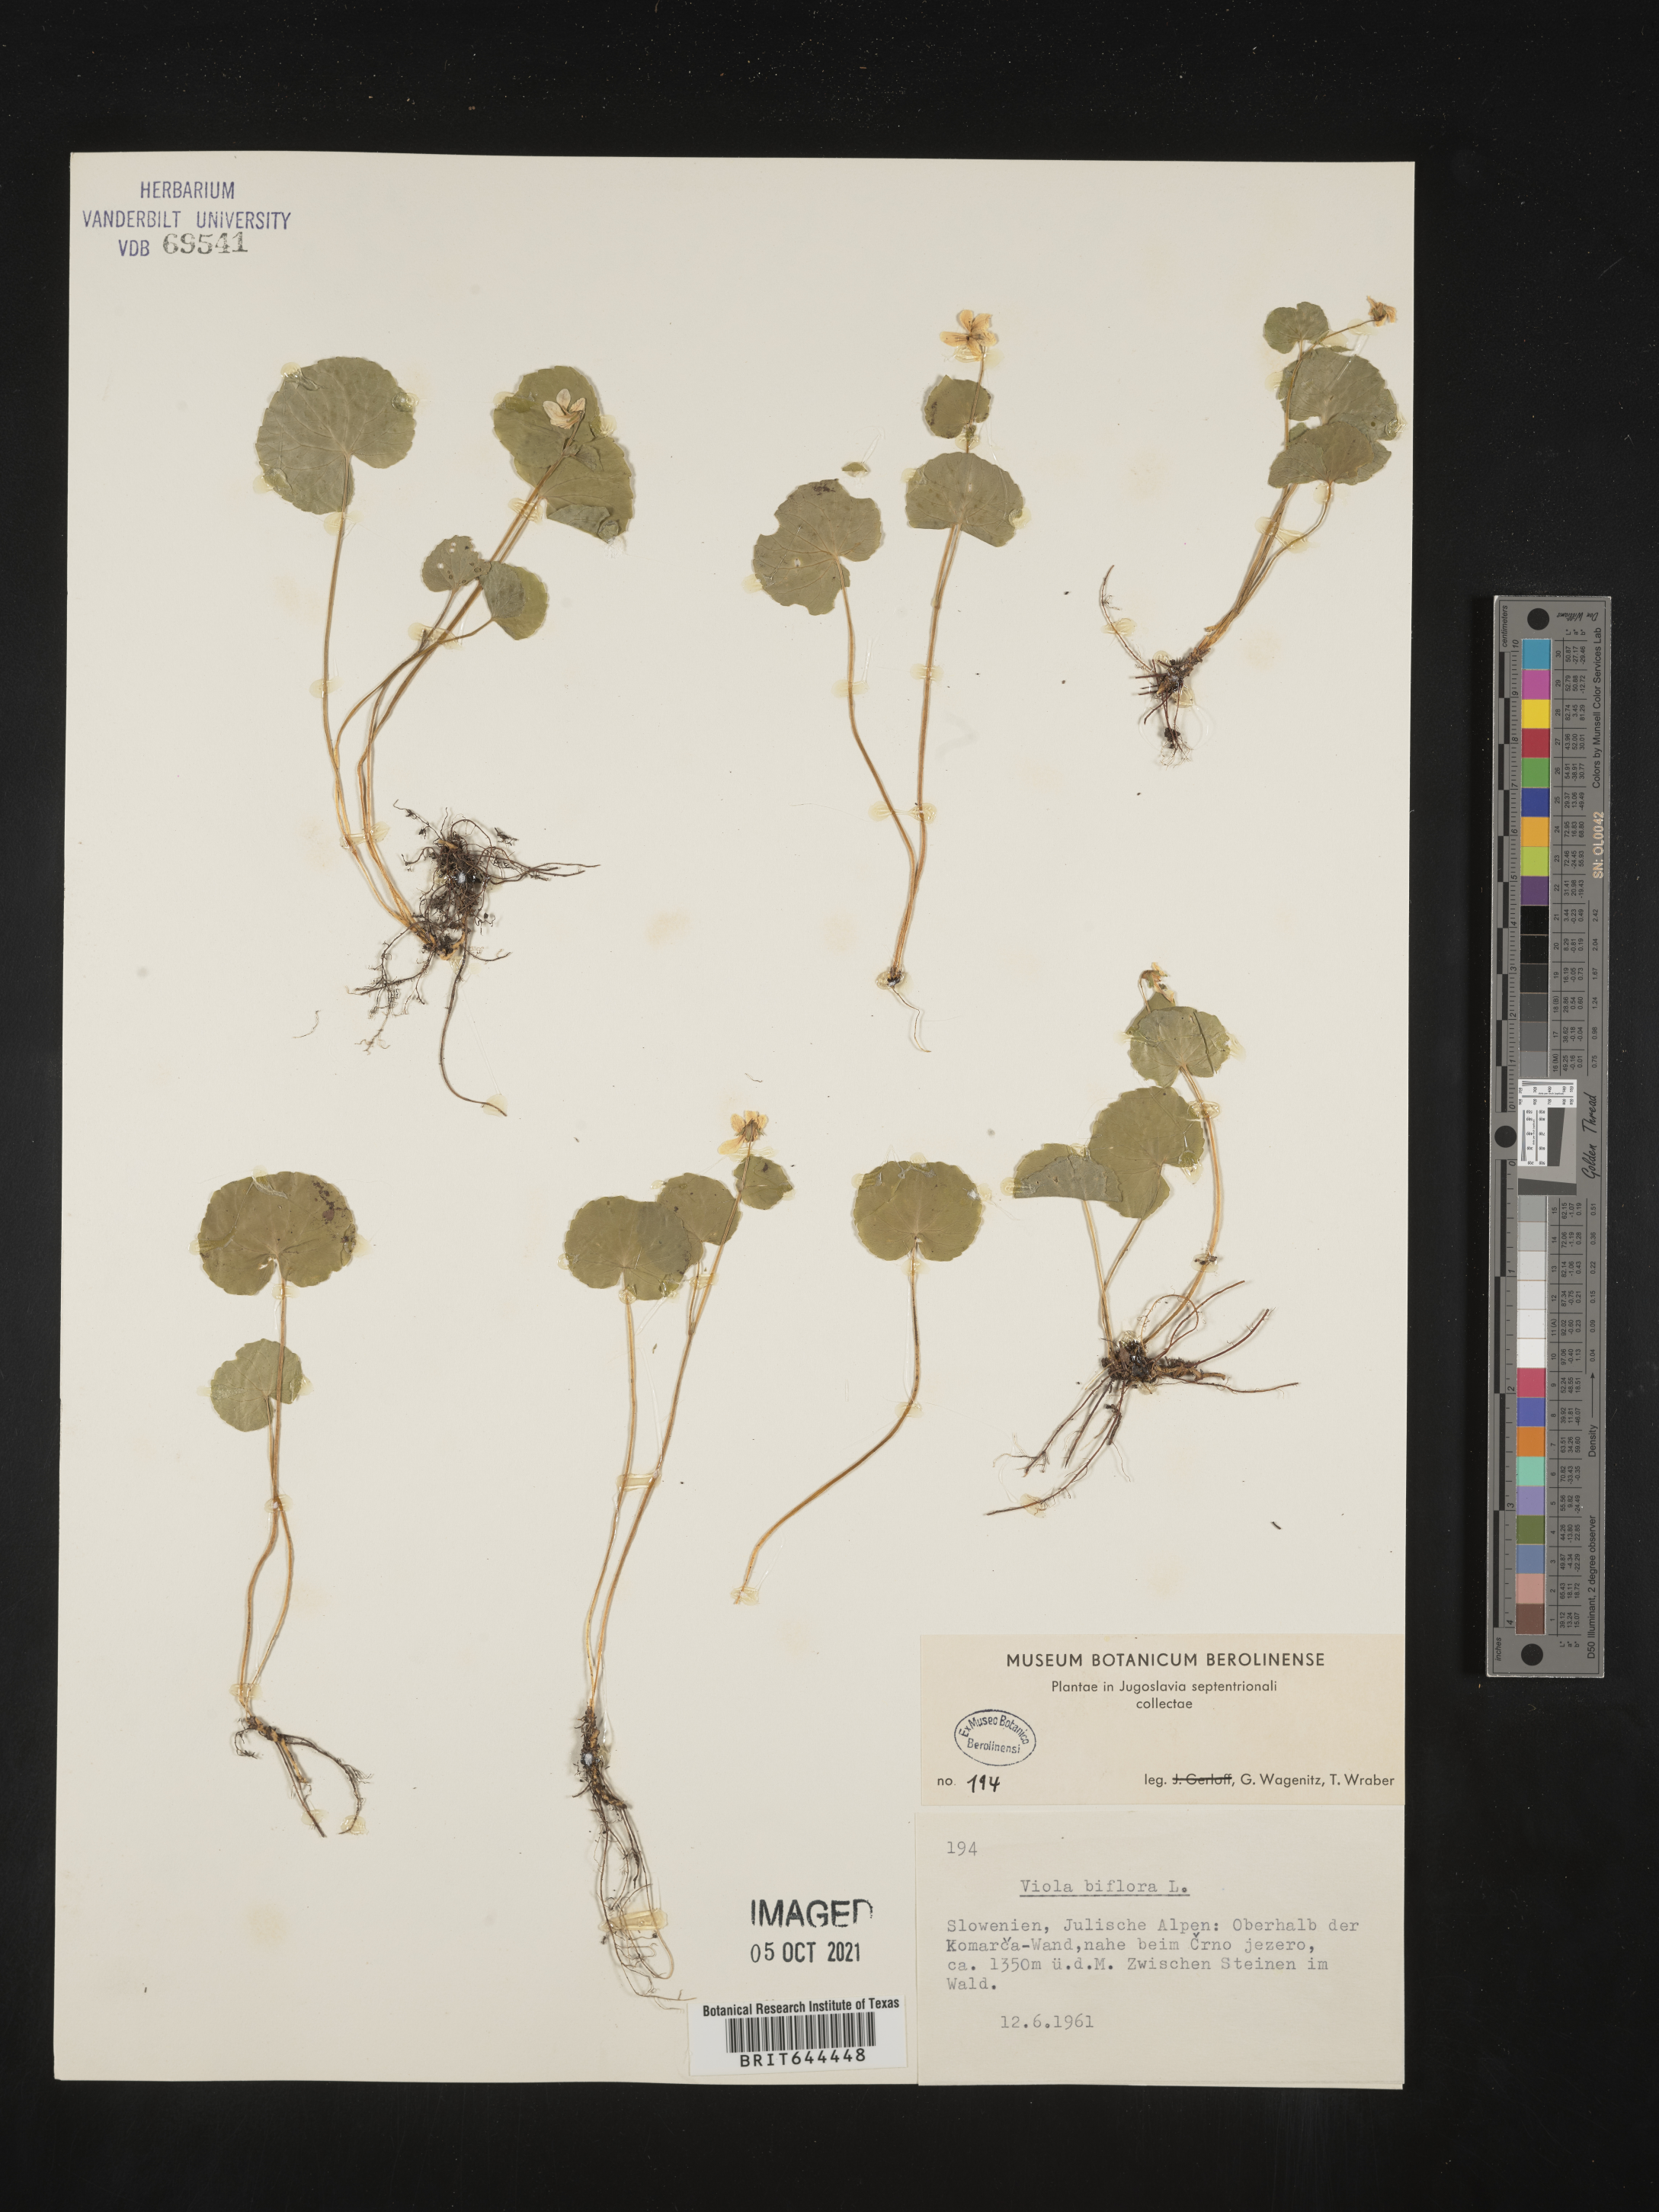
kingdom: Plantae
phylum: Tracheophyta
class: Magnoliopsida
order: Malpighiales
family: Violaceae
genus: Viola
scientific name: Viola
